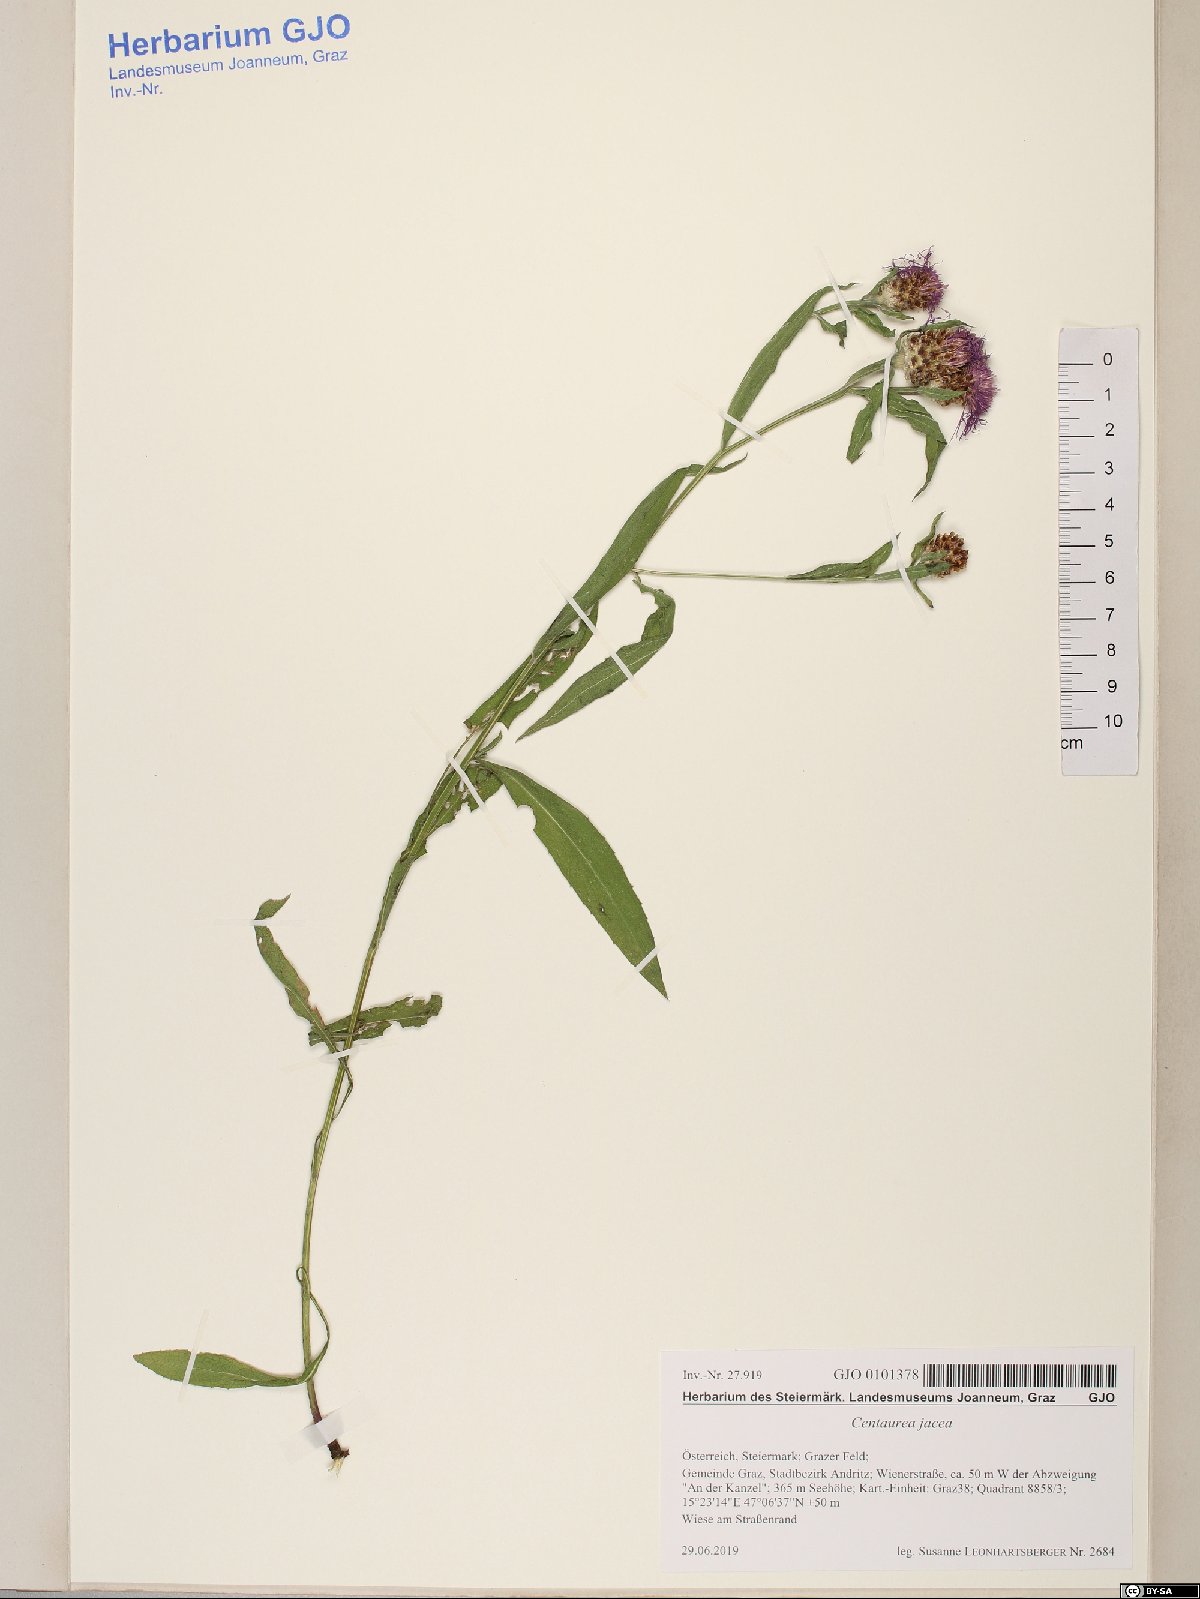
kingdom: Plantae
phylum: Tracheophyta
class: Magnoliopsida
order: Asterales
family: Asteraceae
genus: Centaurea
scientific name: Centaurea jacea
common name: Brown knapweed
